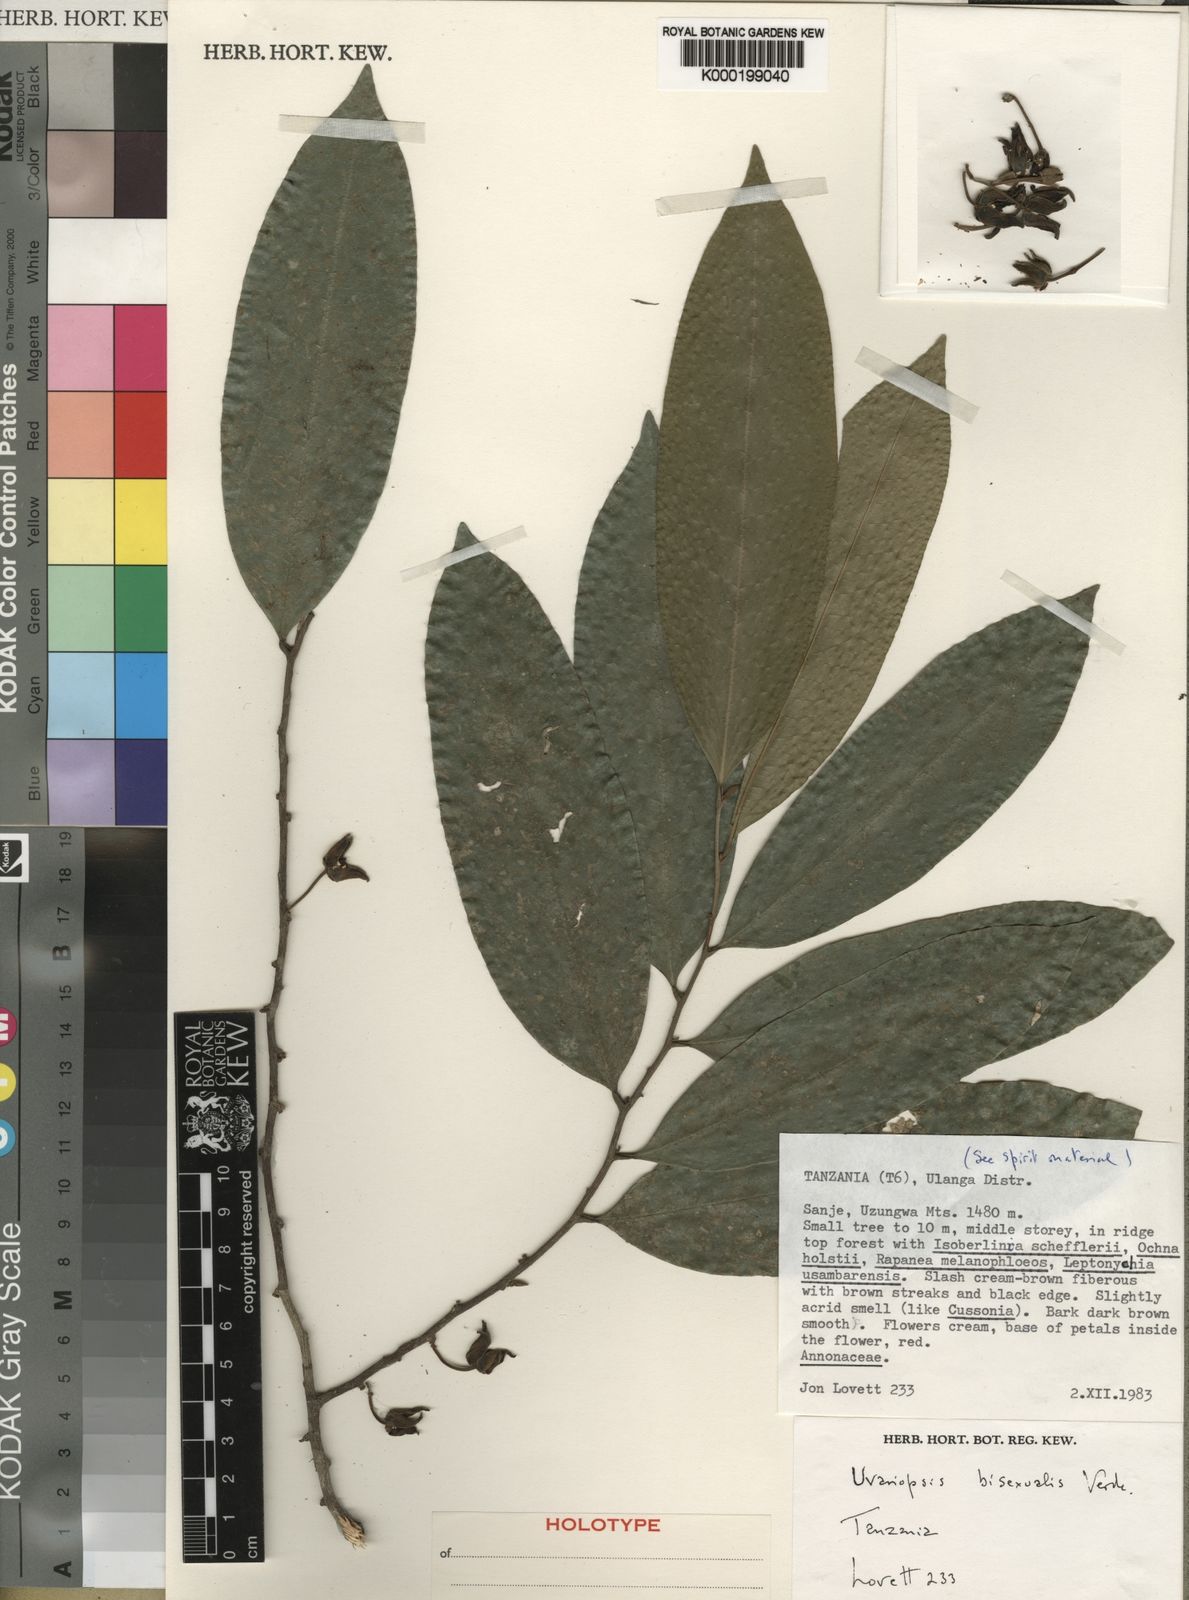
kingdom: Plantae
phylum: Tracheophyta
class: Magnoliopsida
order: Magnoliales
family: Annonaceae
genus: Uvariopsis
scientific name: Uvariopsis bisexualis
